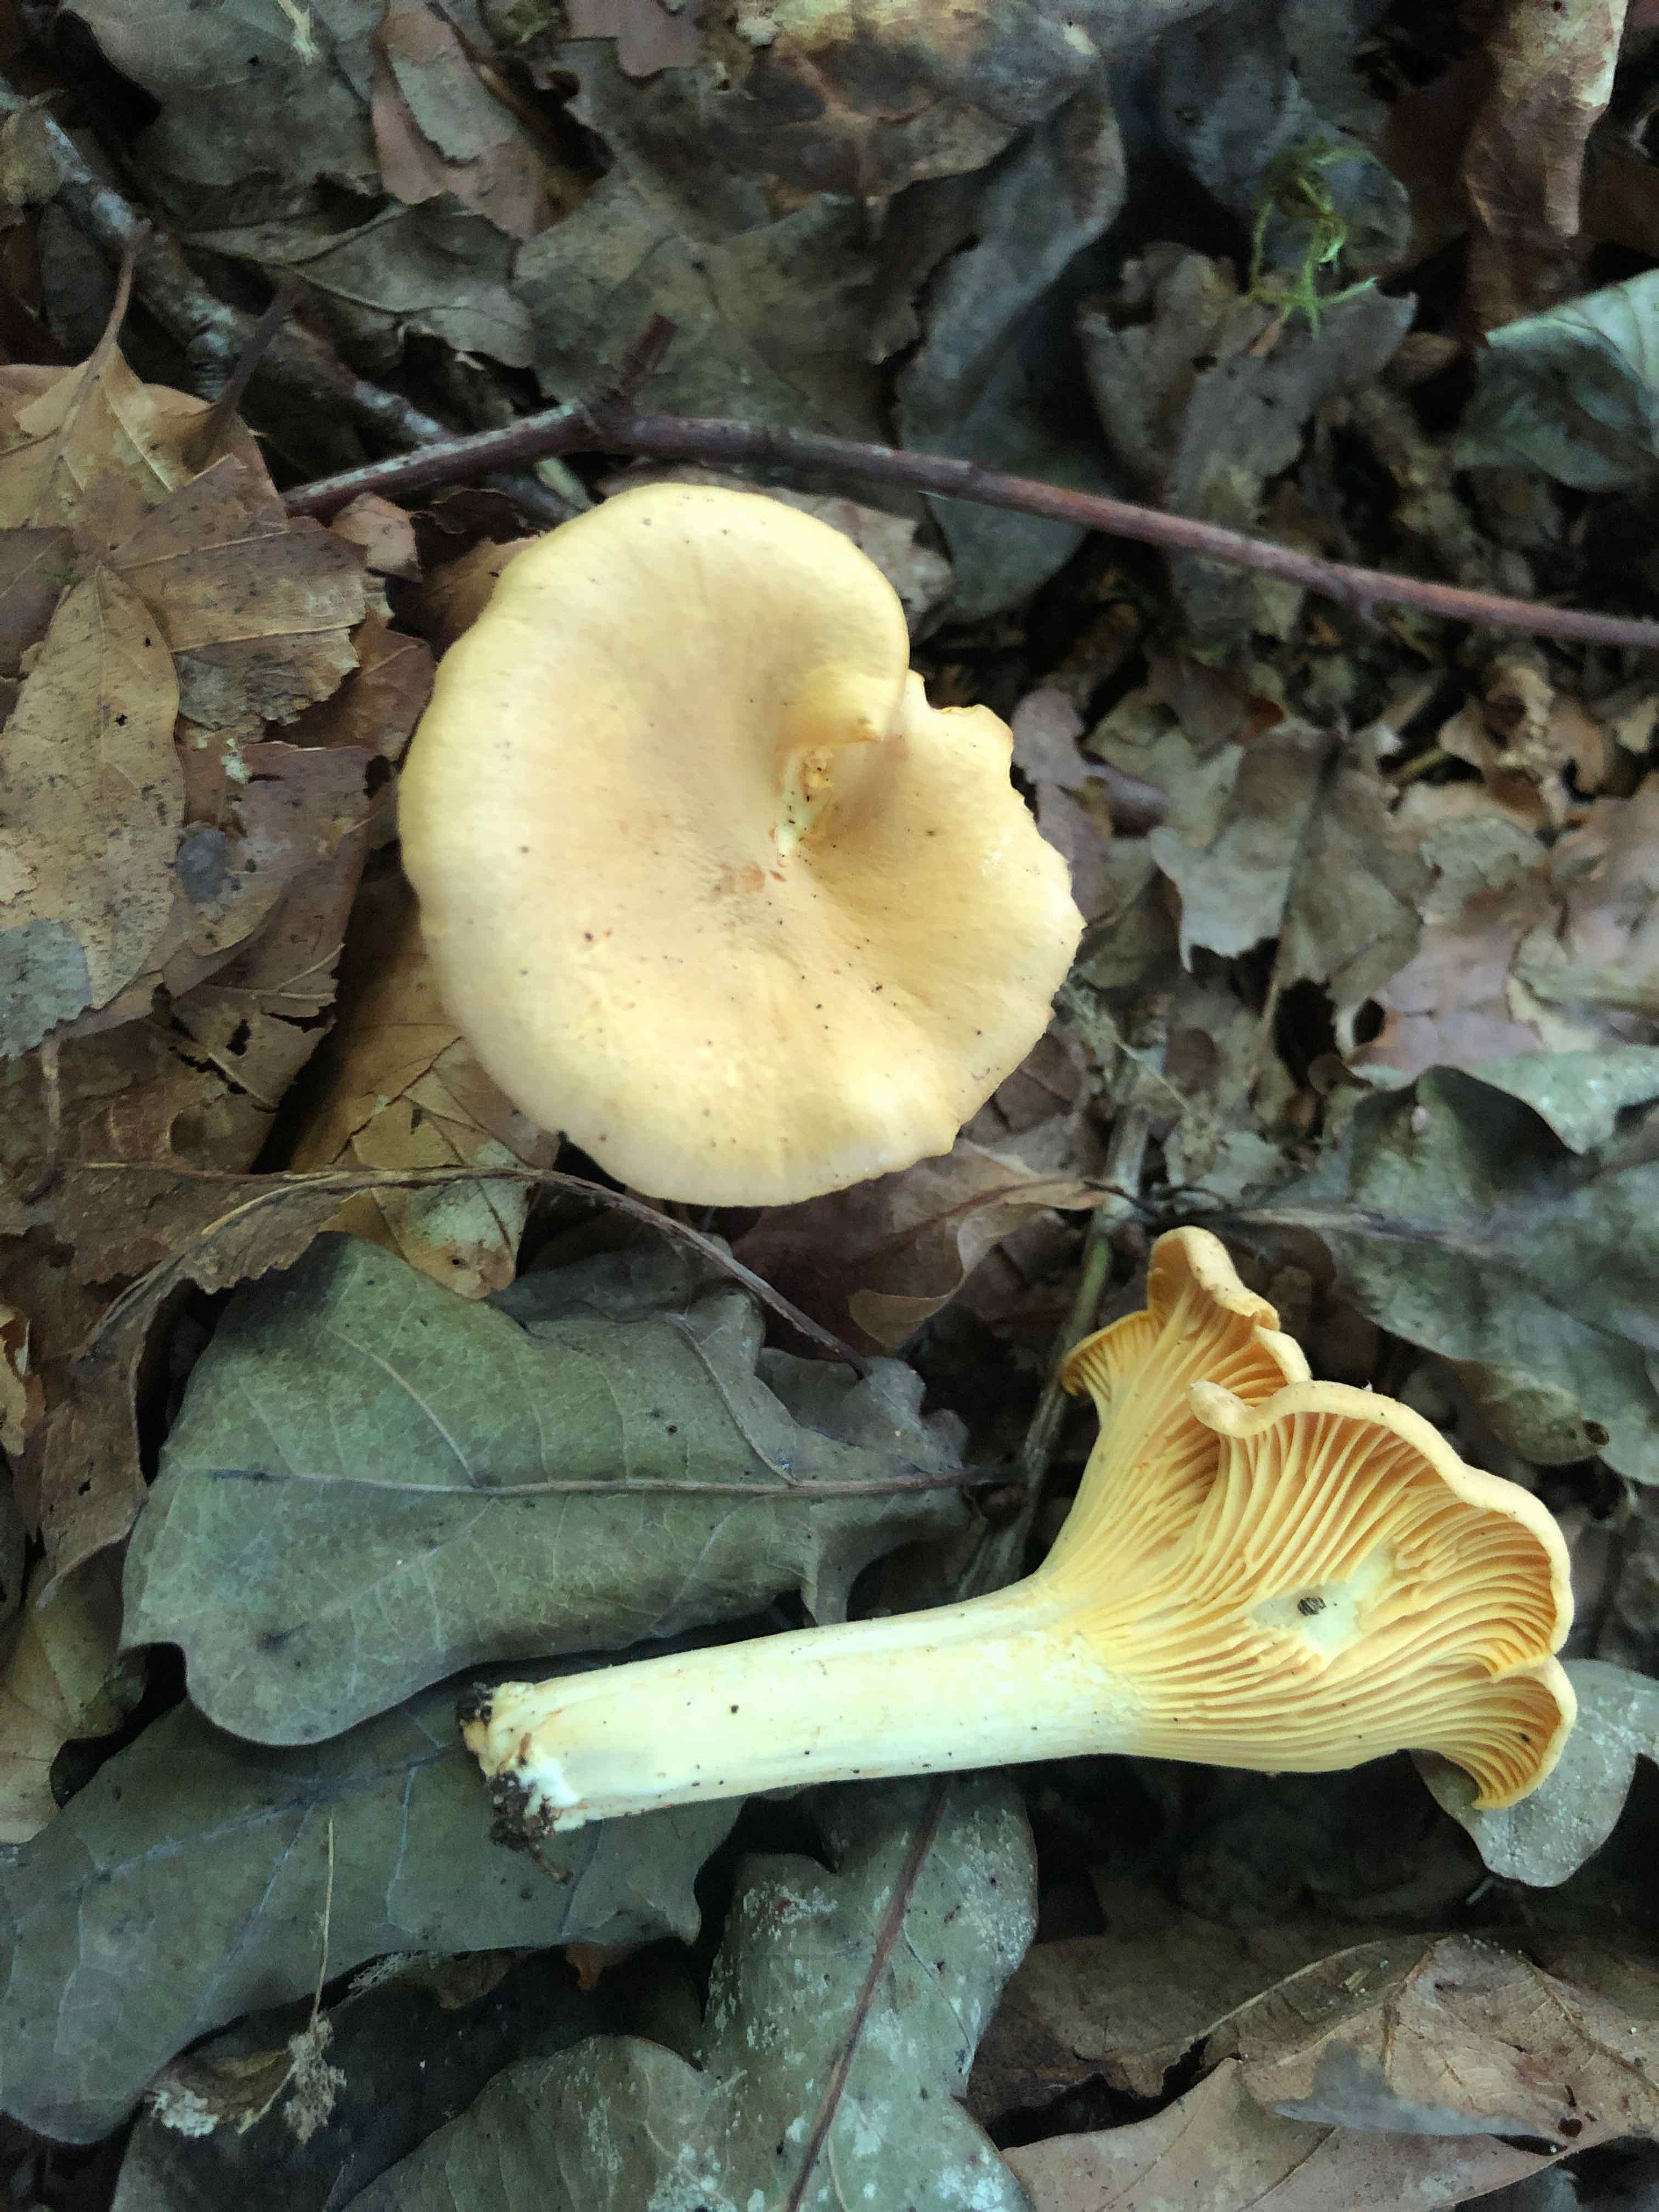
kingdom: Fungi
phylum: Basidiomycota
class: Agaricomycetes
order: Cantharellales
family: Hydnaceae
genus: Cantharellus
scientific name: Cantharellus pallens
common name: bleg kantarel
